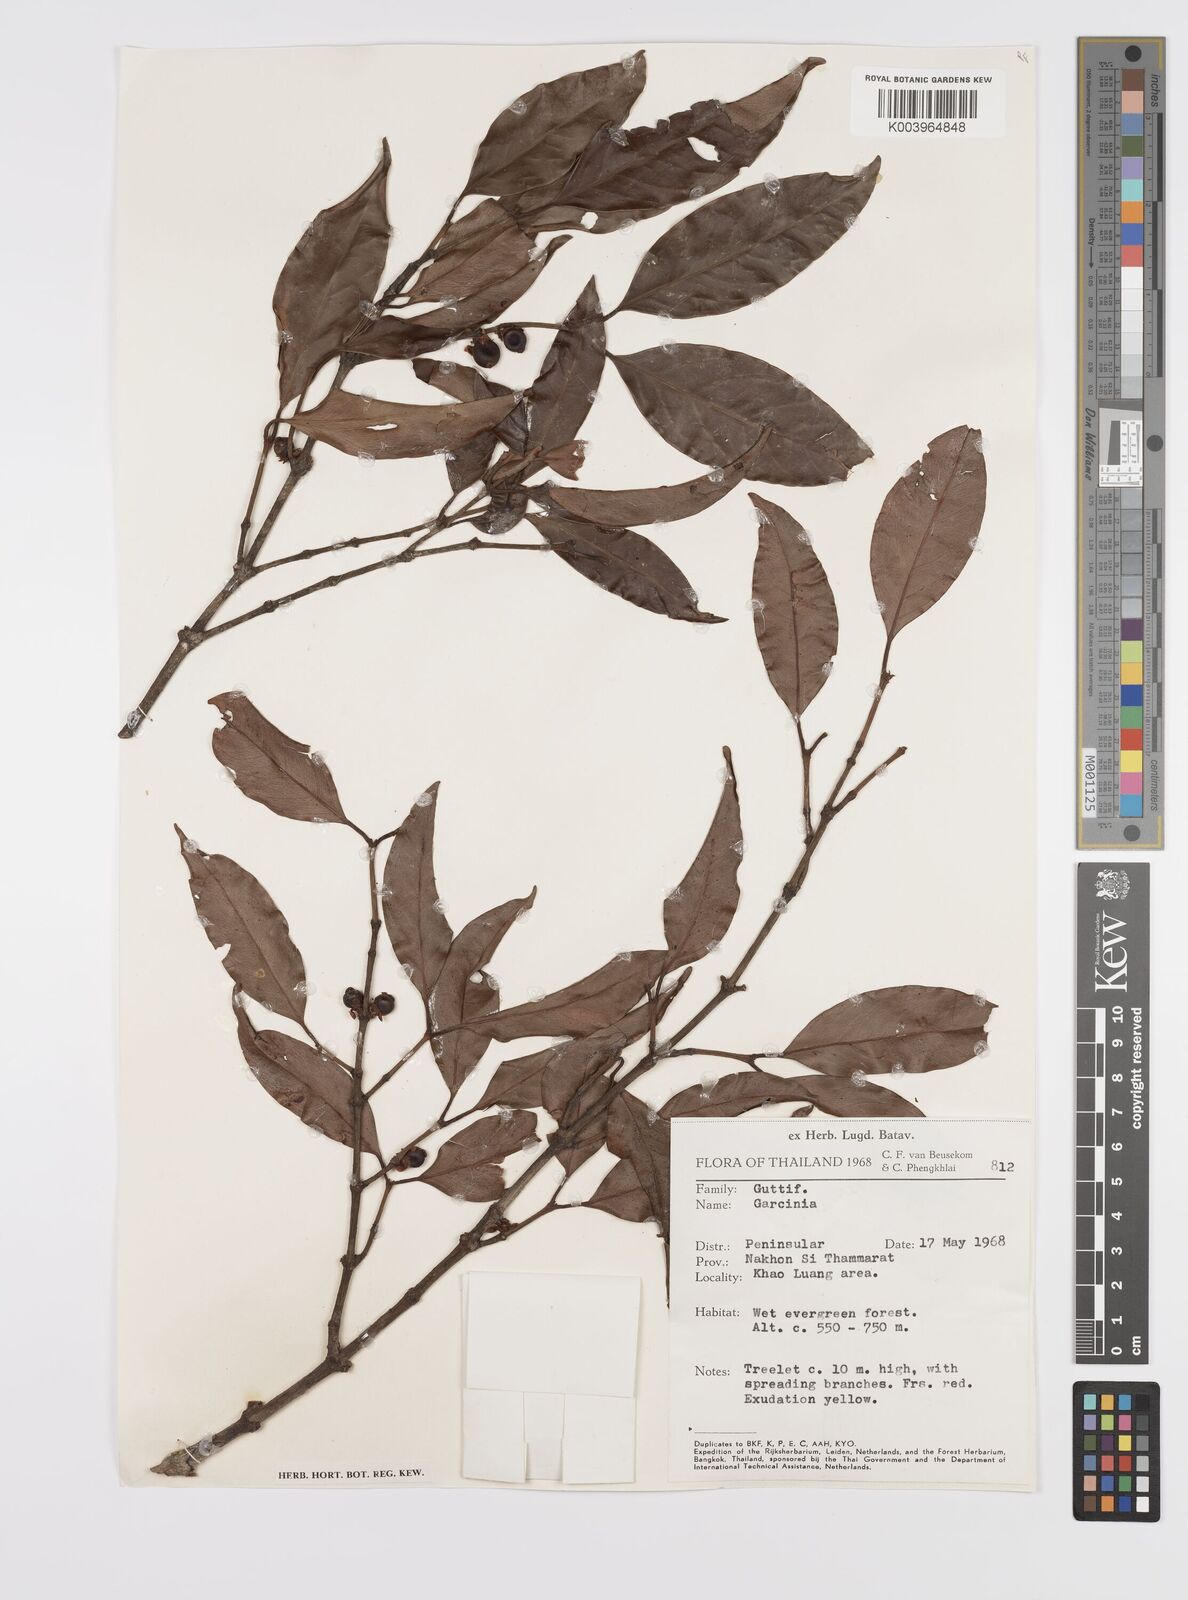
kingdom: Plantae
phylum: Tracheophyta
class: Magnoliopsida
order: Malpighiales
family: Clusiaceae
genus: Garcinia
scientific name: Garcinia
